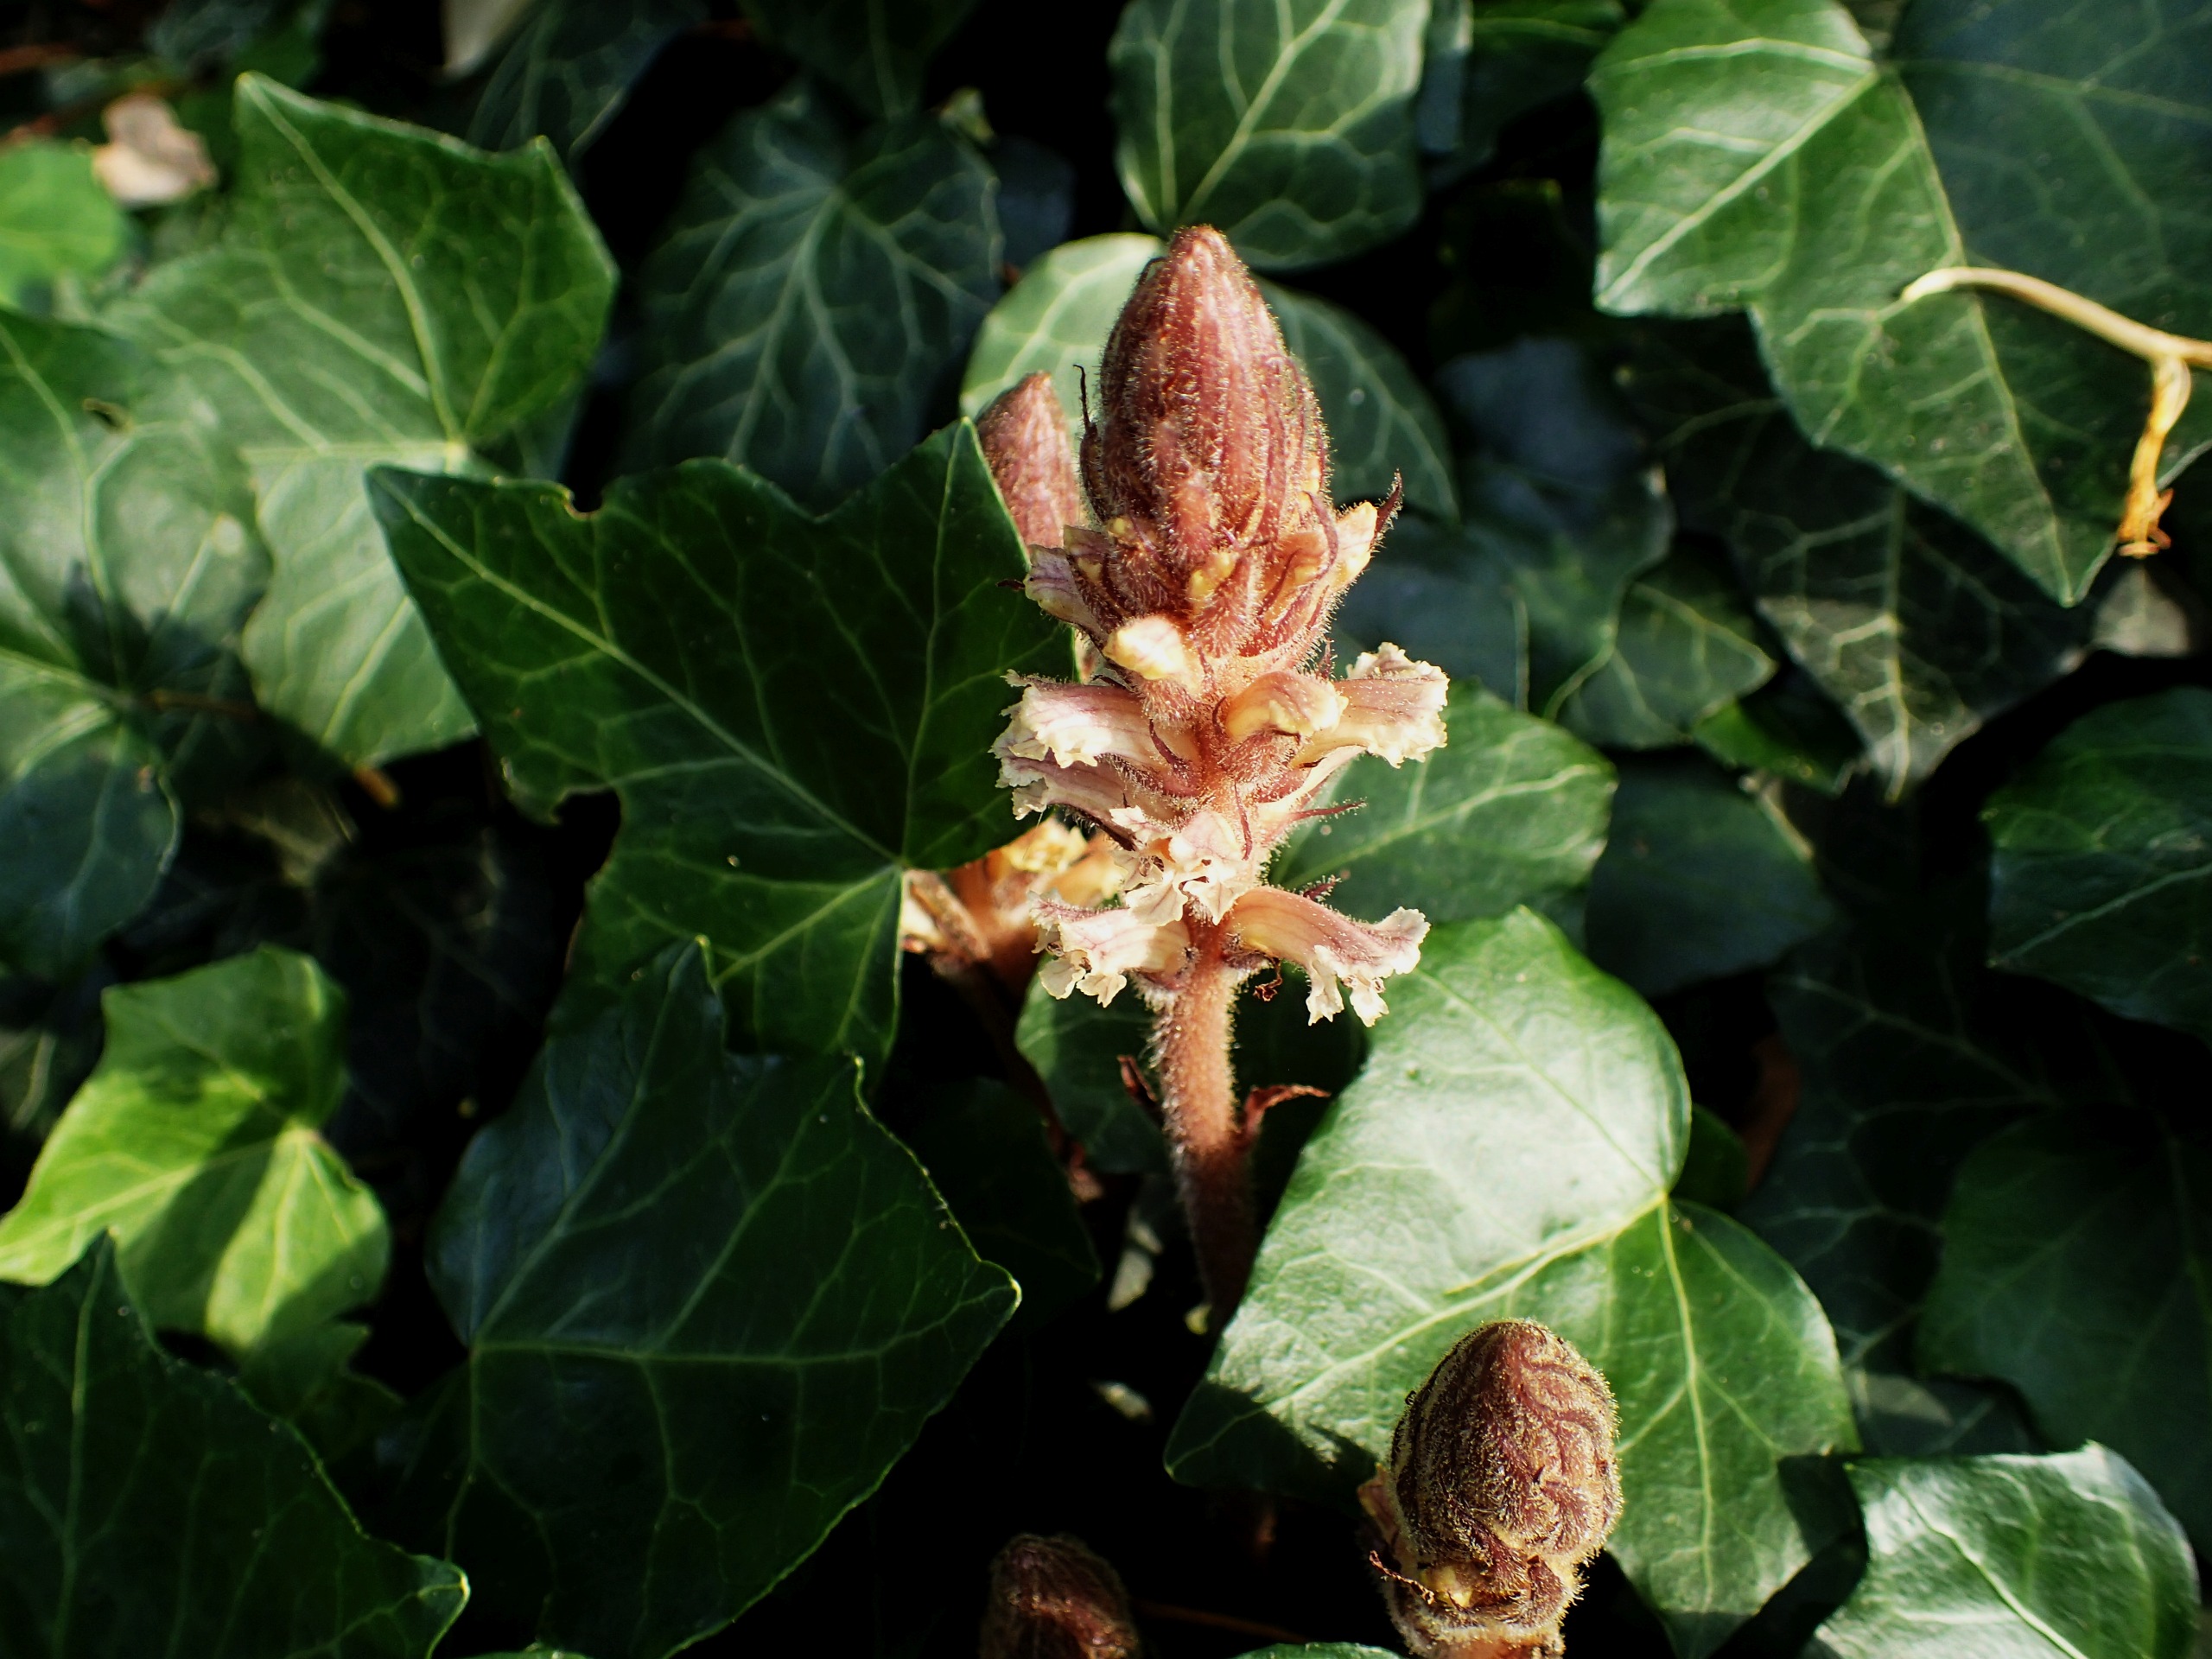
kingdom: Plantae
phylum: Tracheophyta
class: Magnoliopsida
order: Lamiales
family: Orobanchaceae
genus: Orobanche
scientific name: Orobanche hederae
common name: Vedbend-gyvelkvæler
